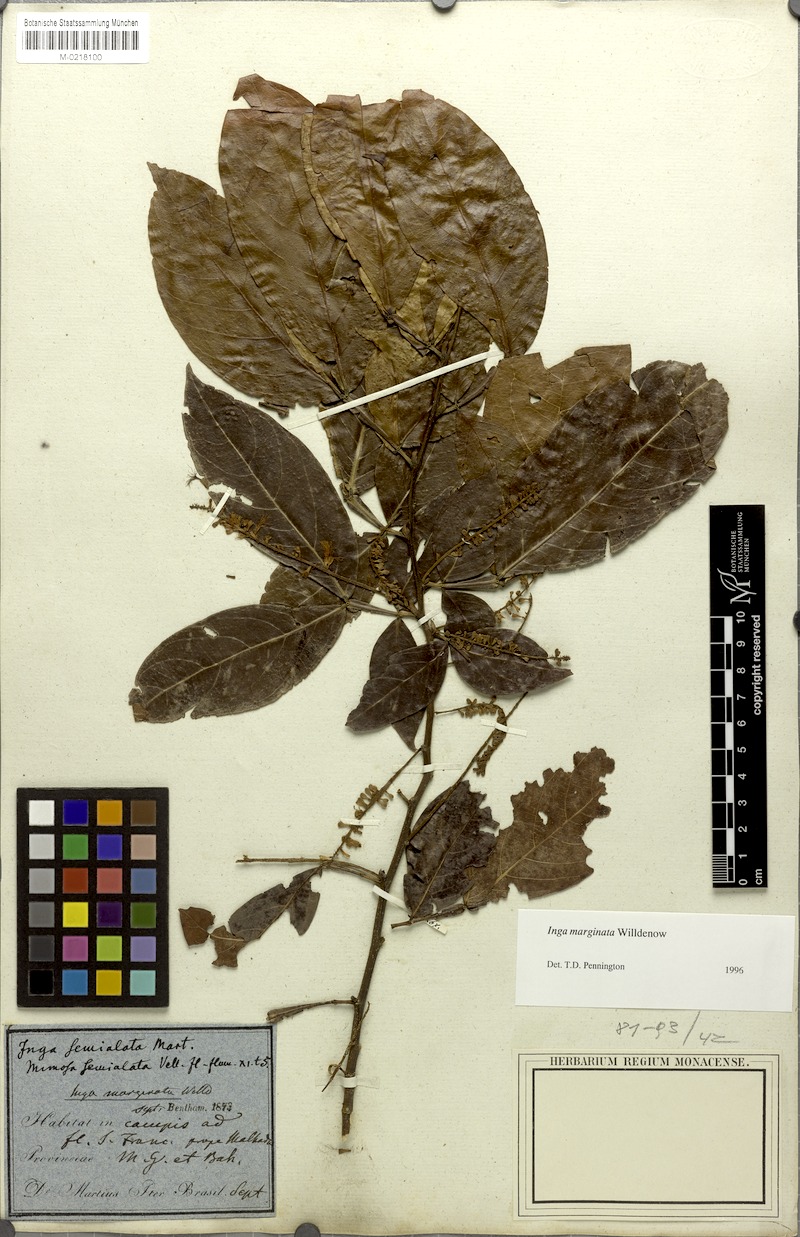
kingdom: Plantae
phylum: Tracheophyta
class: Magnoliopsida
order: Fabales
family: Fabaceae
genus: Inga
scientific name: Inga marginata
